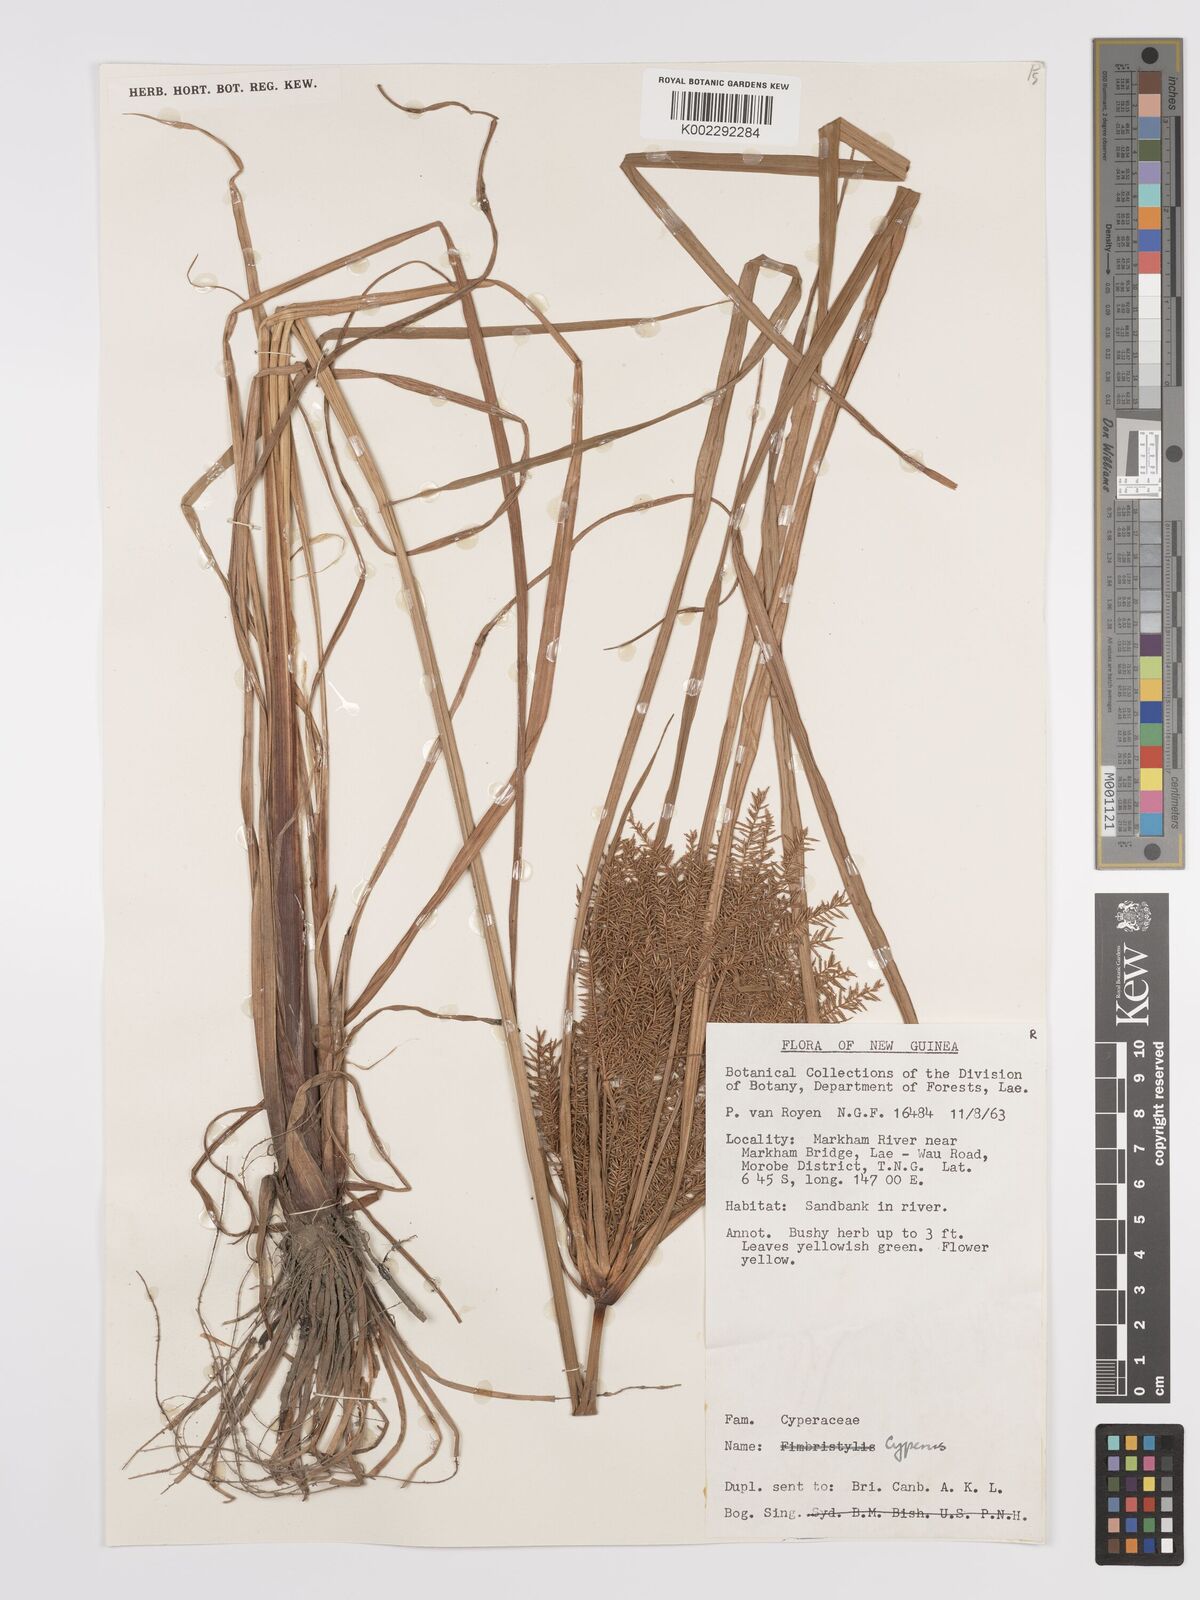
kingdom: Plantae
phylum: Tracheophyta
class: Liliopsida
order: Poales
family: Cyperaceae
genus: Cyperus
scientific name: Cyperus digitatus
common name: Finger flatsedge
